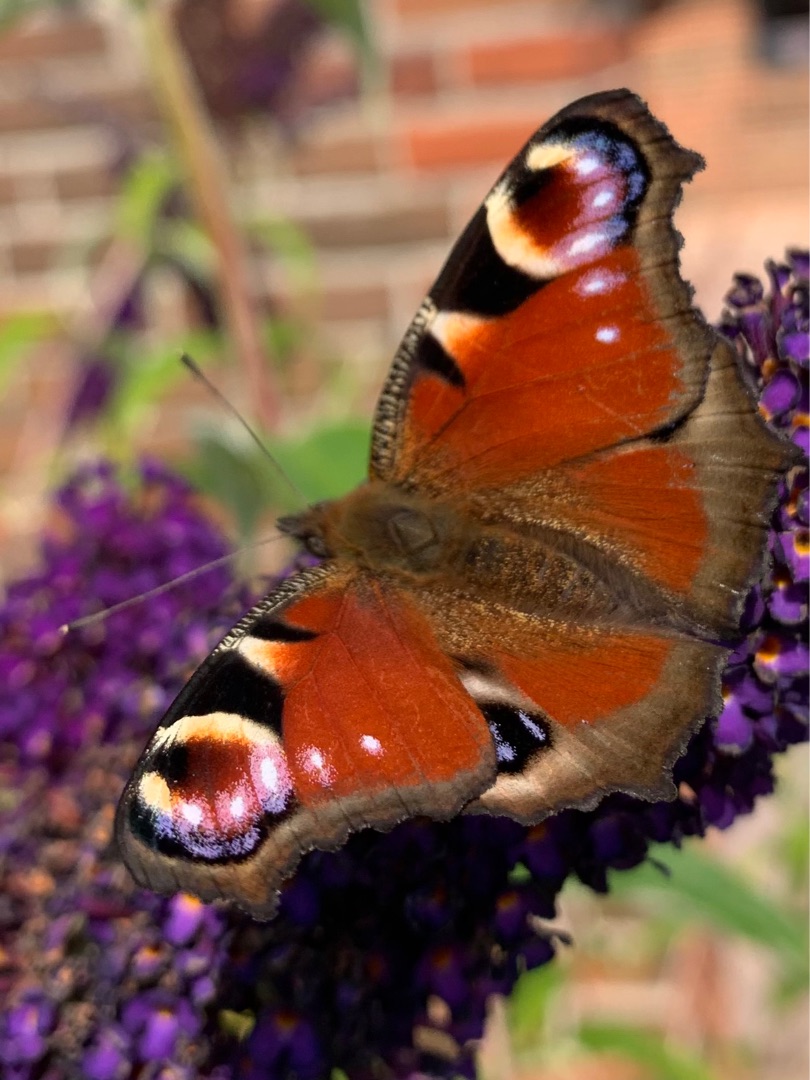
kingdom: Animalia
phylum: Arthropoda
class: Insecta
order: Lepidoptera
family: Nymphalidae
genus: Aglais
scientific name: Aglais io
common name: Dagpåfugleøje
